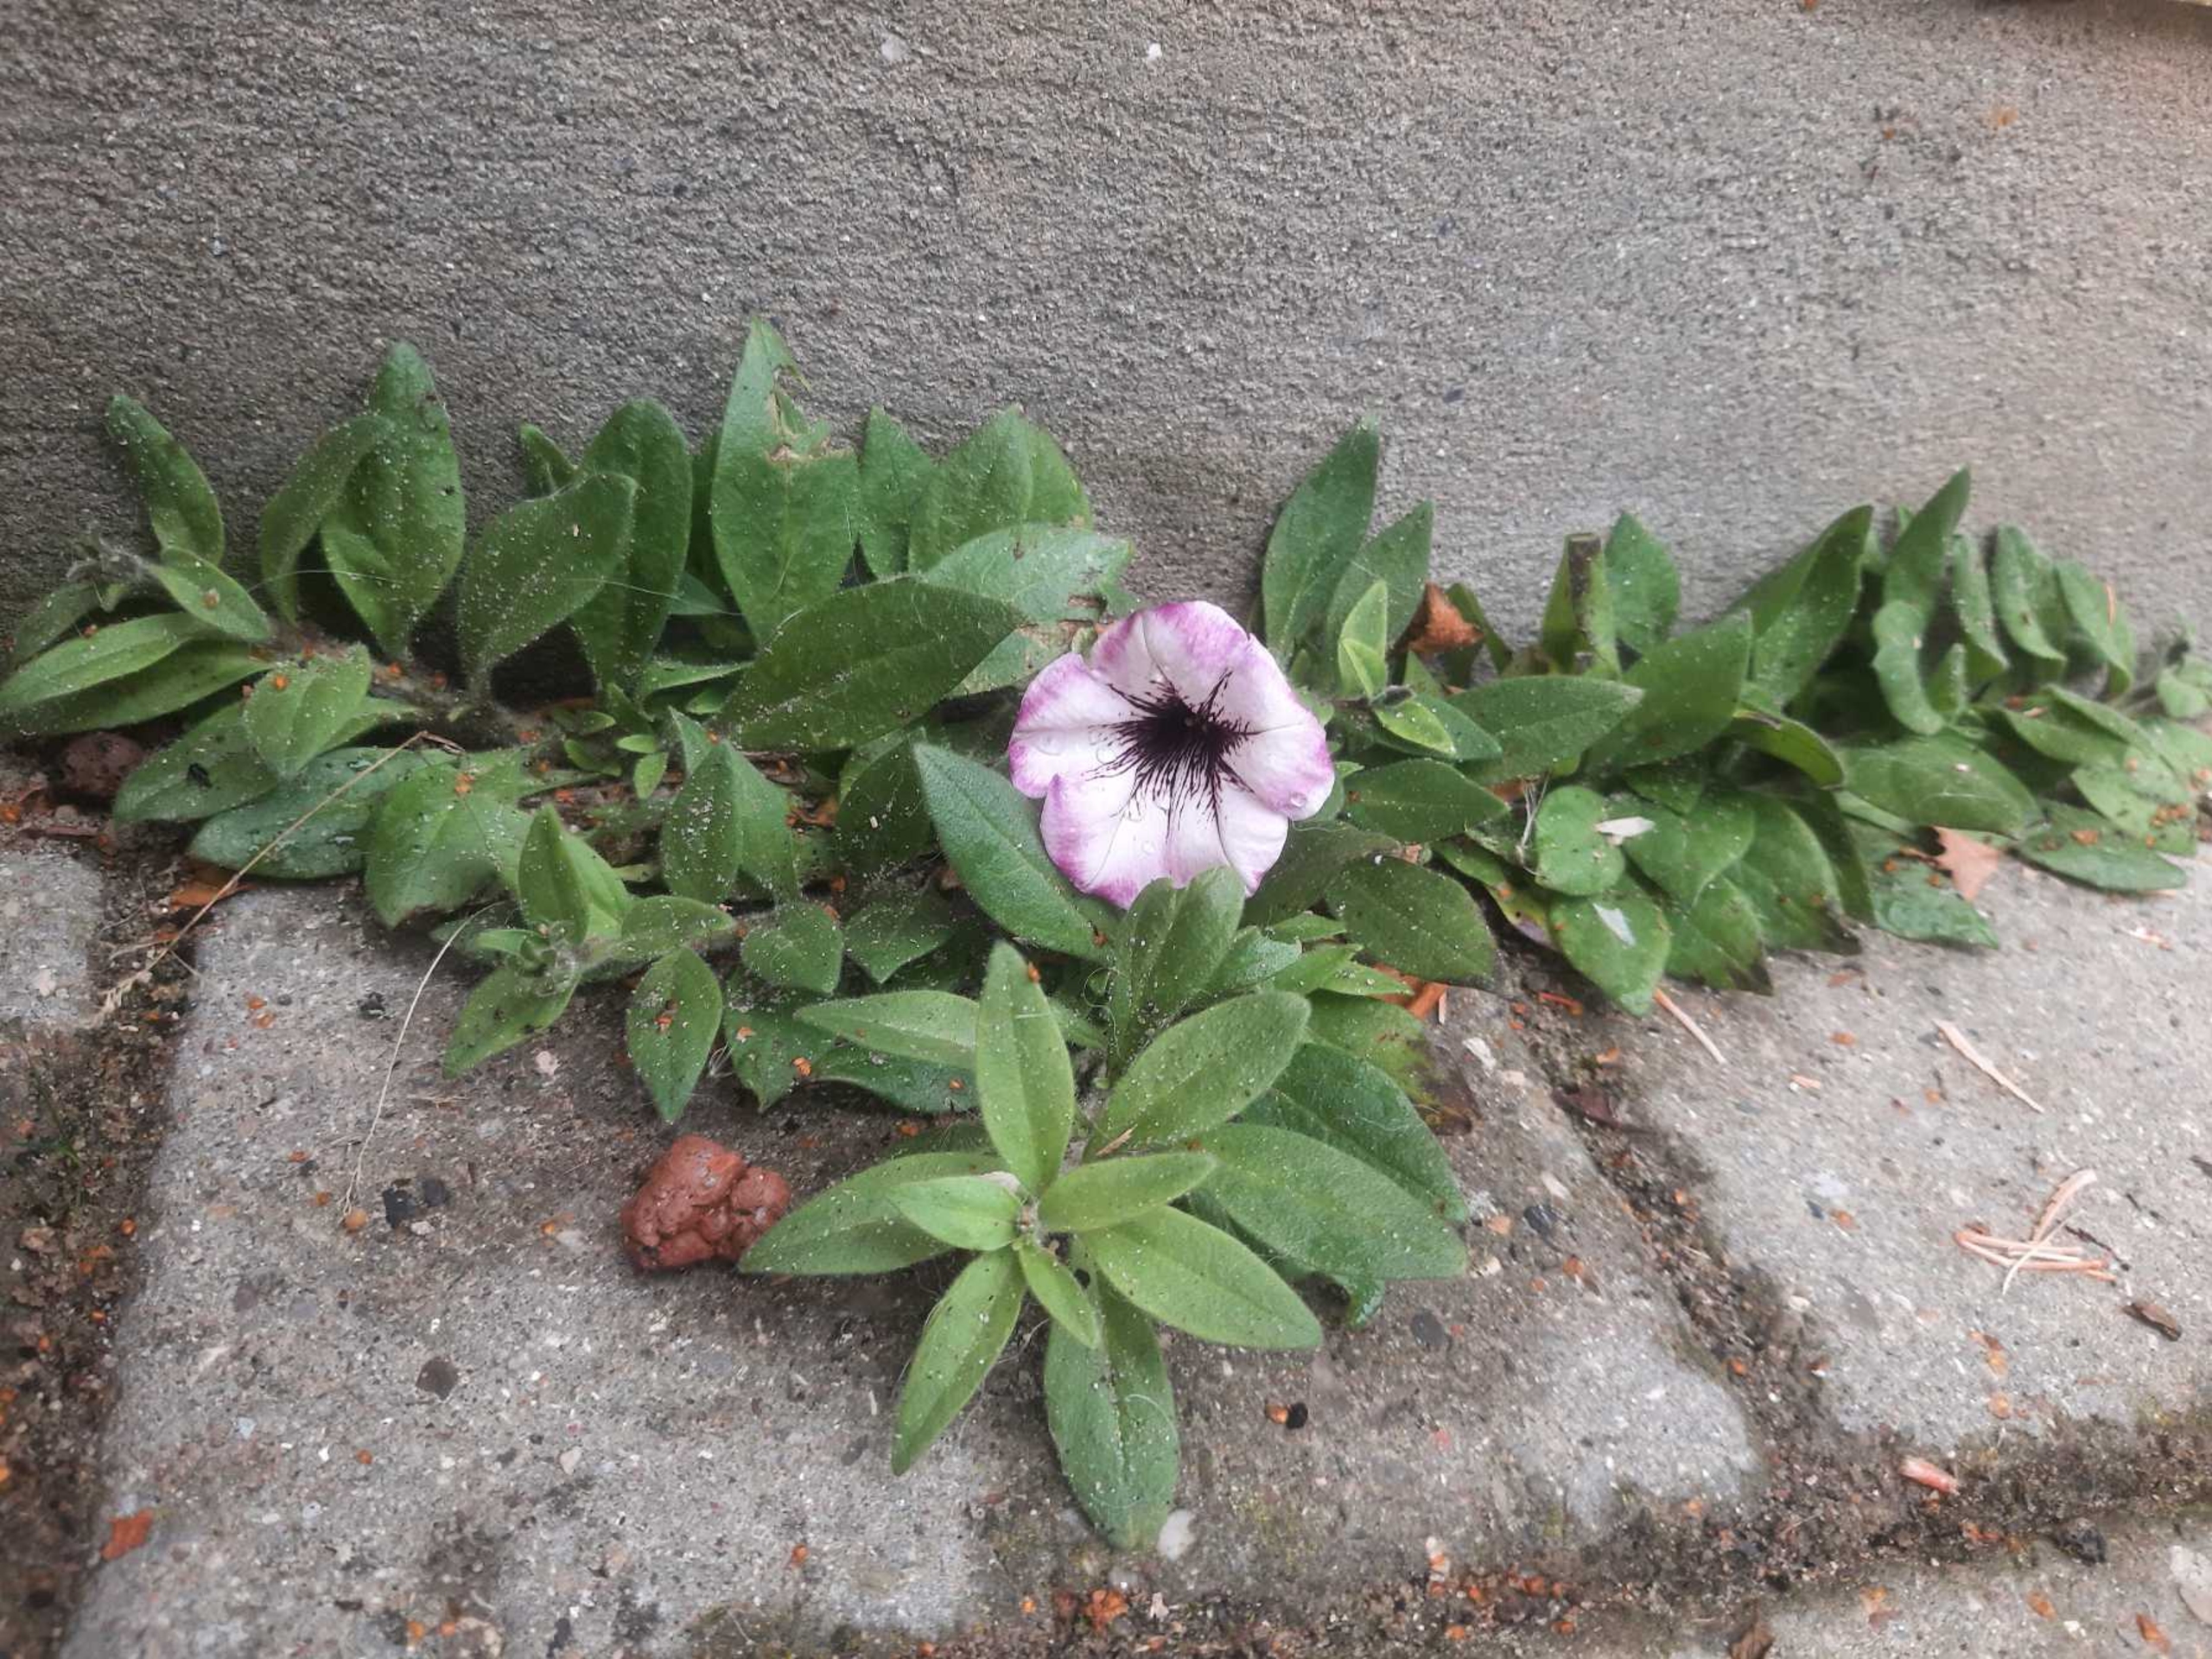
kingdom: Plantae
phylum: Tracheophyta
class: Magnoliopsida
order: Solanales
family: Solanaceae
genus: Petunia
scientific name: Petunia atkinsiana
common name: Have-petunie
